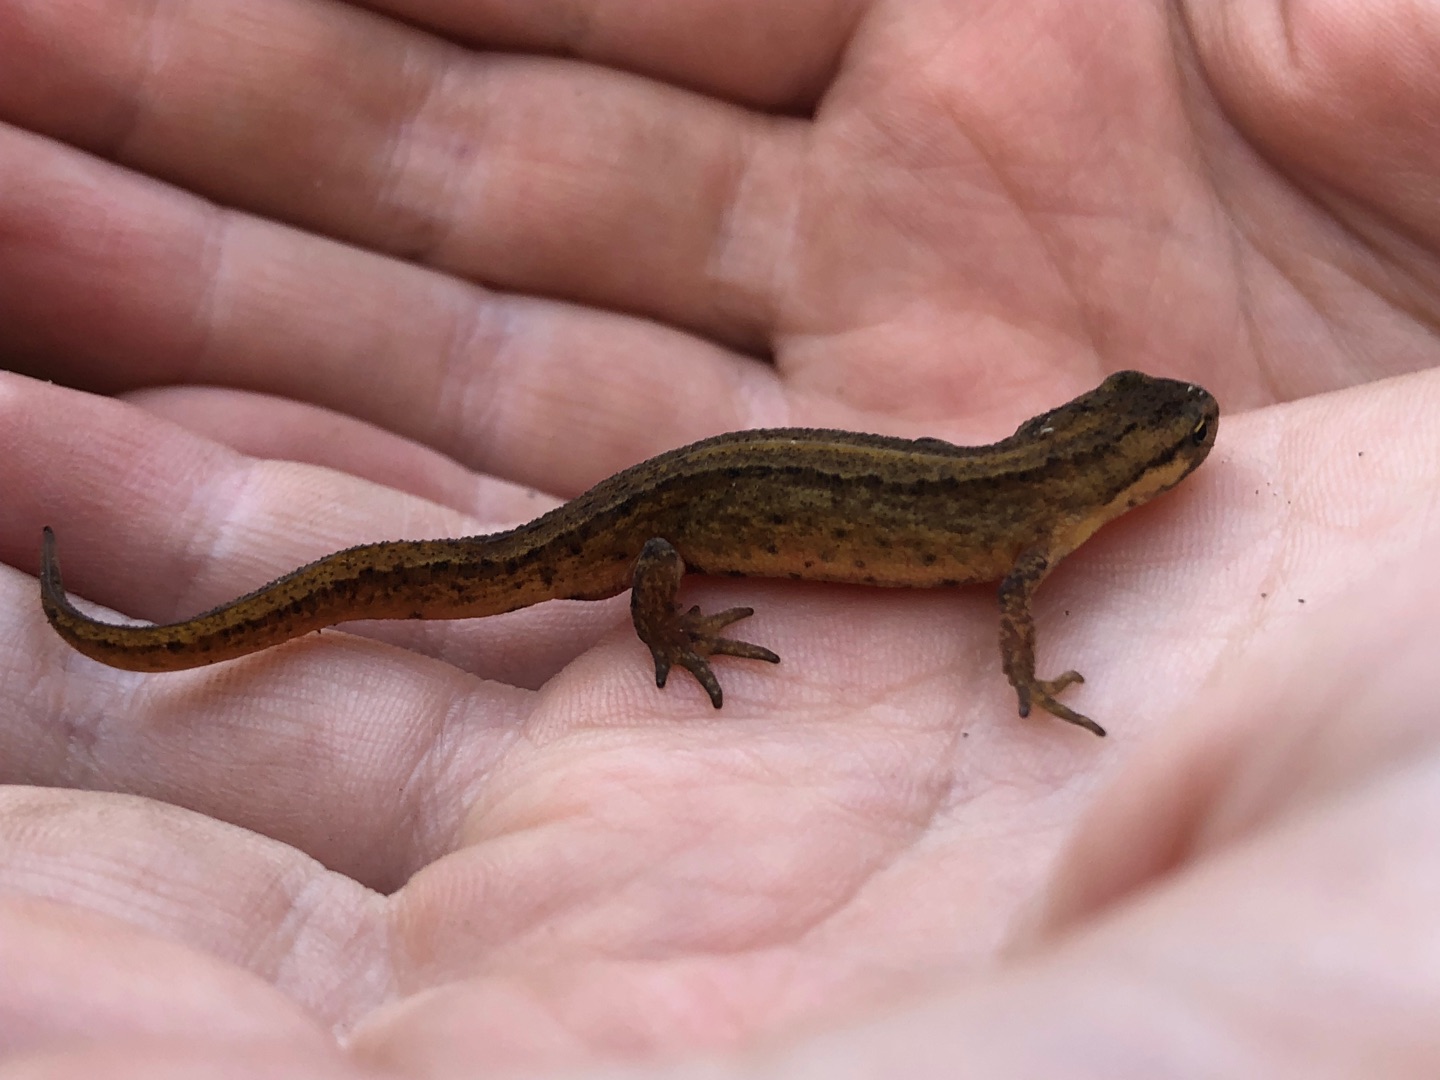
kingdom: Animalia
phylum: Chordata
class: Amphibia
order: Caudata
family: Salamandridae
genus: Lissotriton
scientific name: Lissotriton vulgaris
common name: Lille vandsalamander
